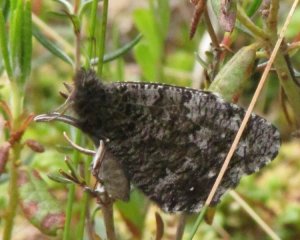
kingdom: Animalia
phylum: Arthropoda
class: Insecta
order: Lepidoptera
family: Nymphalidae
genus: Oeneis
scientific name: Oeneis jutta
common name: Jutta Arctic
